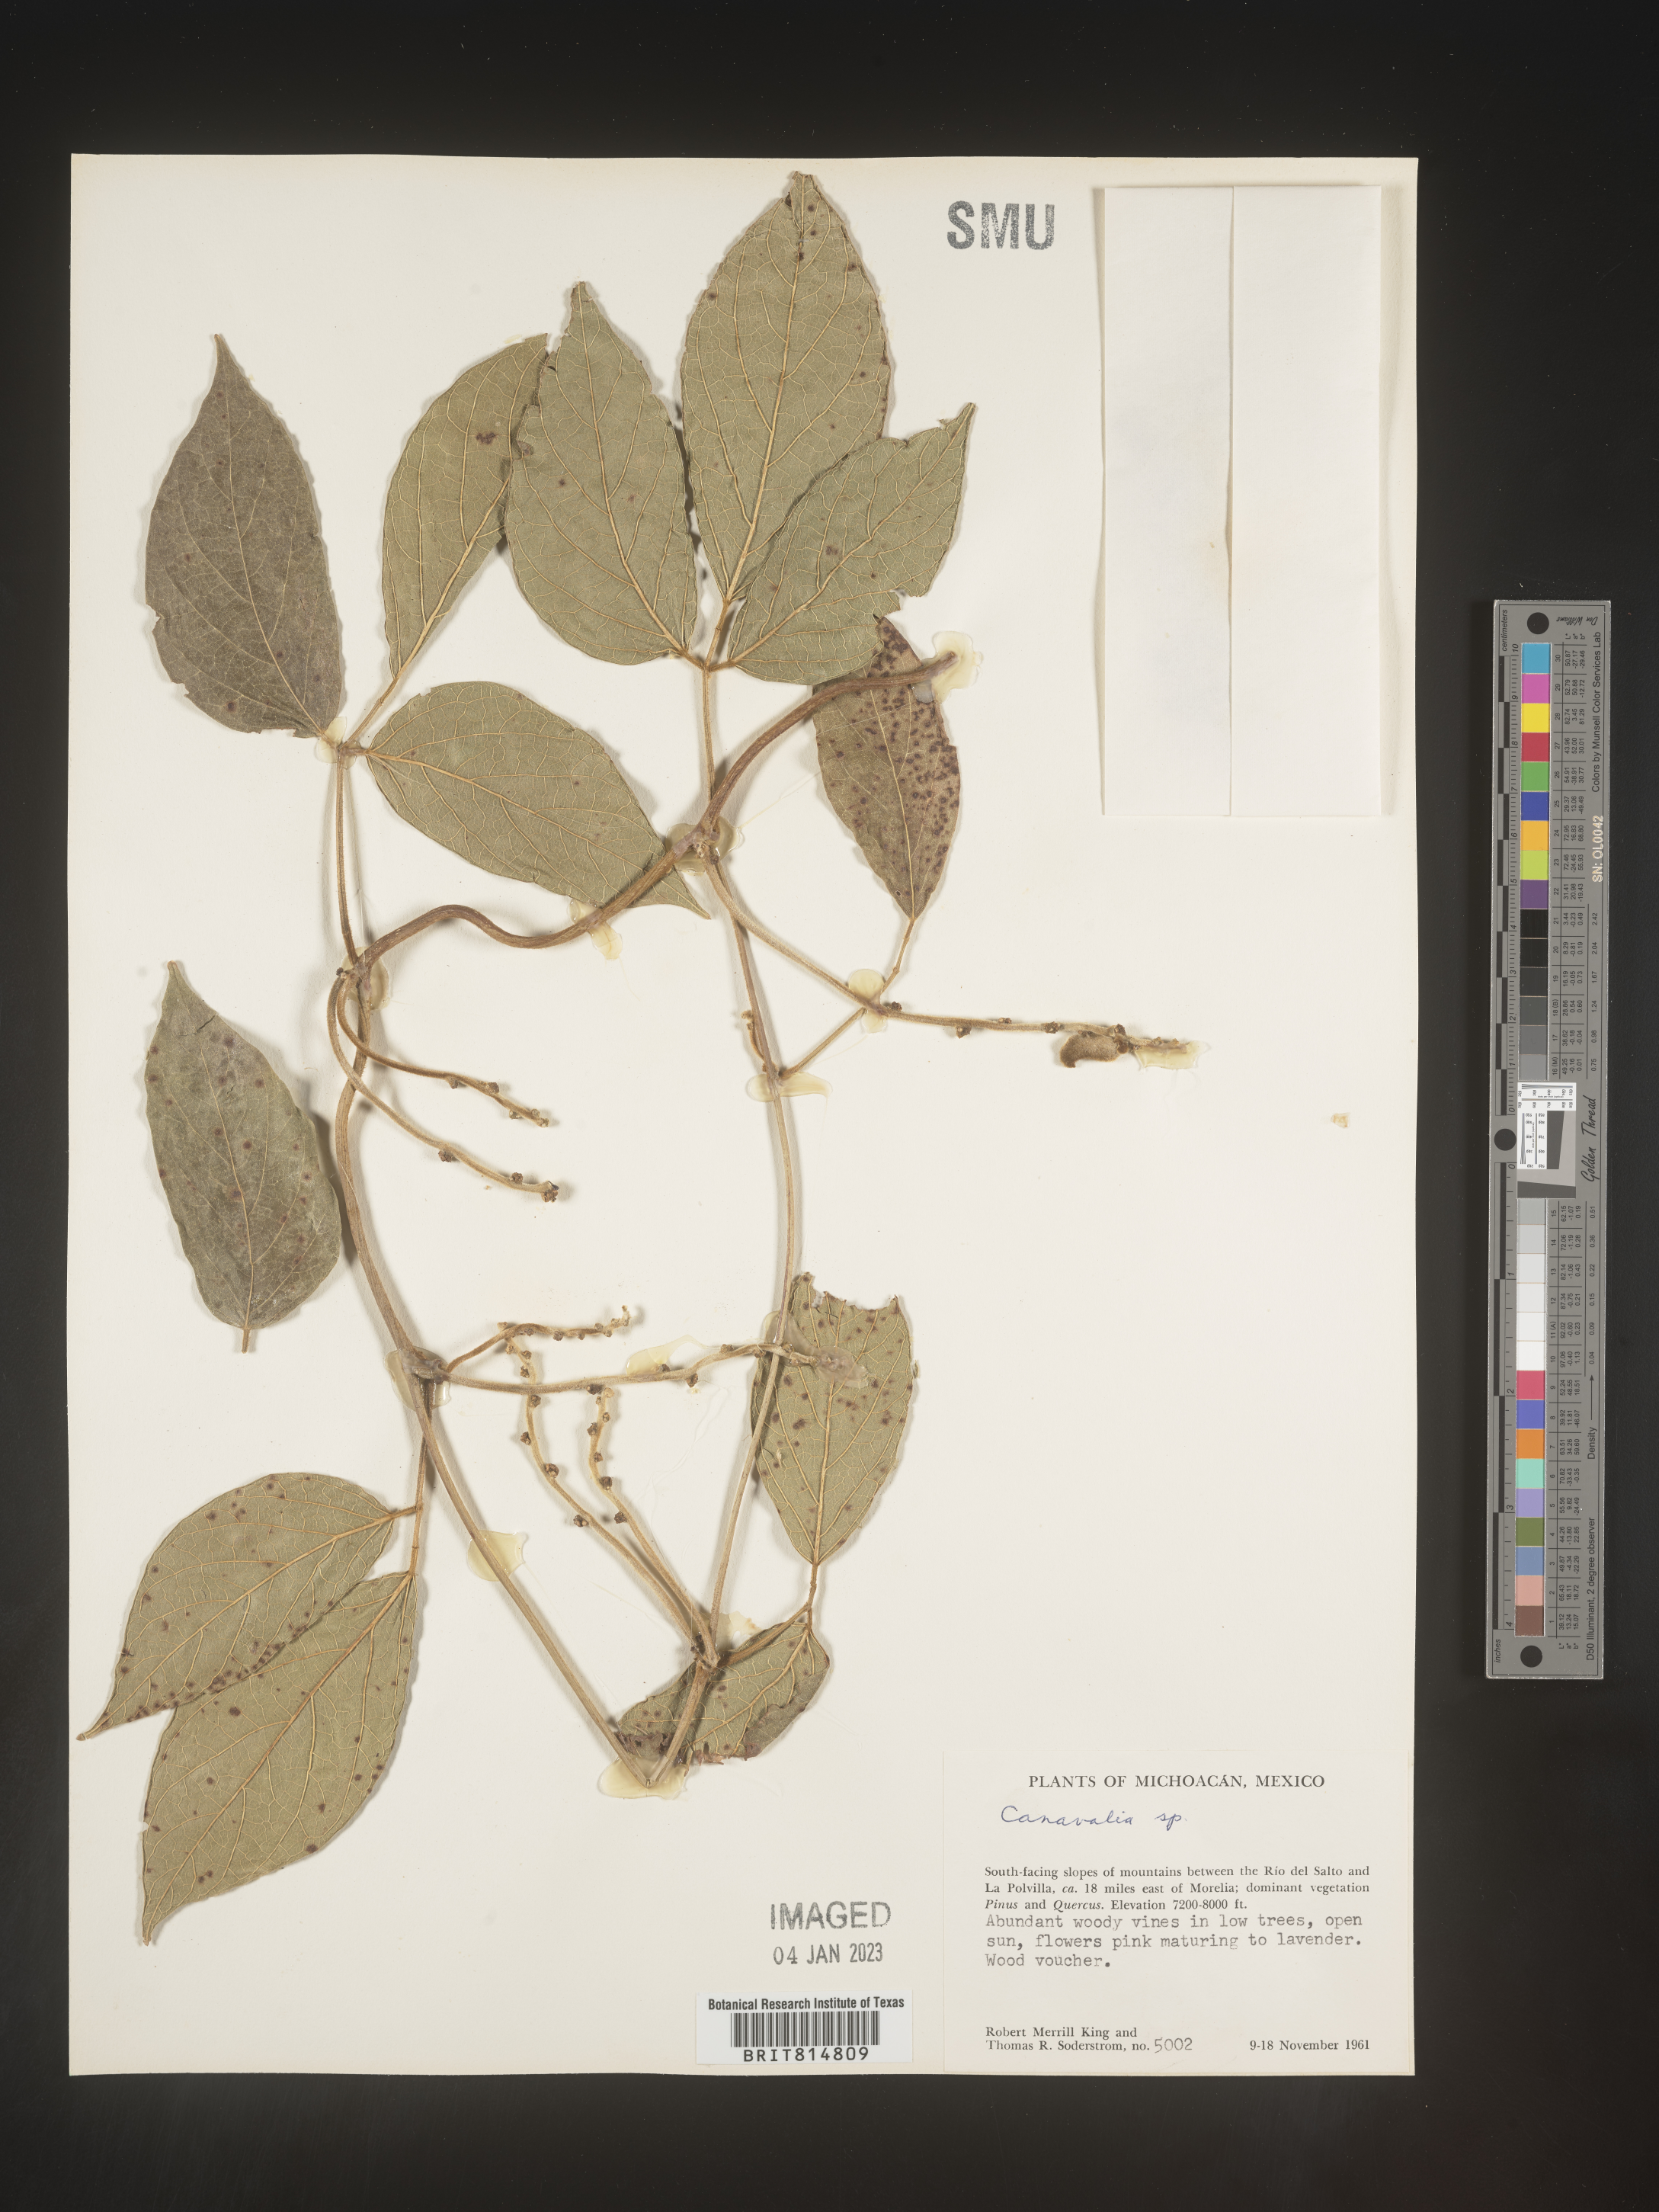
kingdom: Plantae
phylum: Tracheophyta
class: Magnoliopsida
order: Fabales
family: Fabaceae
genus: Canavalia
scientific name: Canavalia
